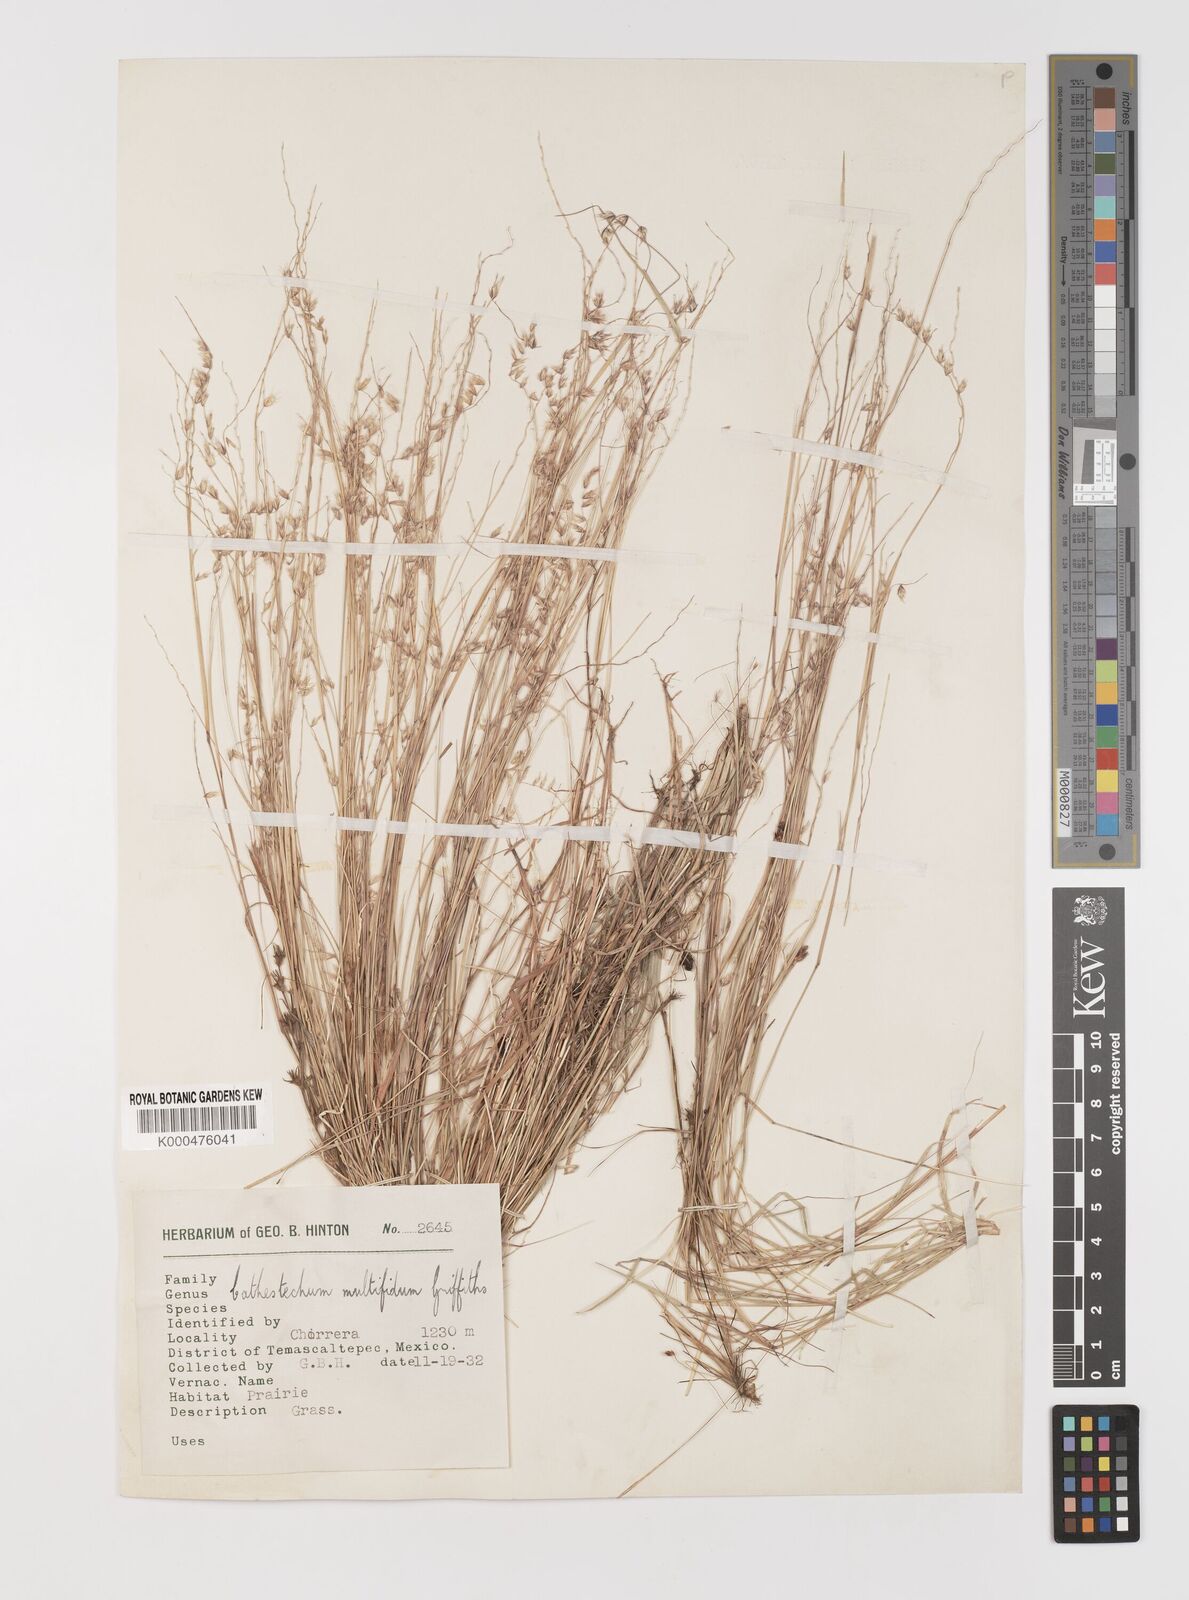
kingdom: Plantae
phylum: Tracheophyta
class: Liliopsida
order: Poales
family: Poaceae
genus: Bouteloua
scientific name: Bouteloua multifida
